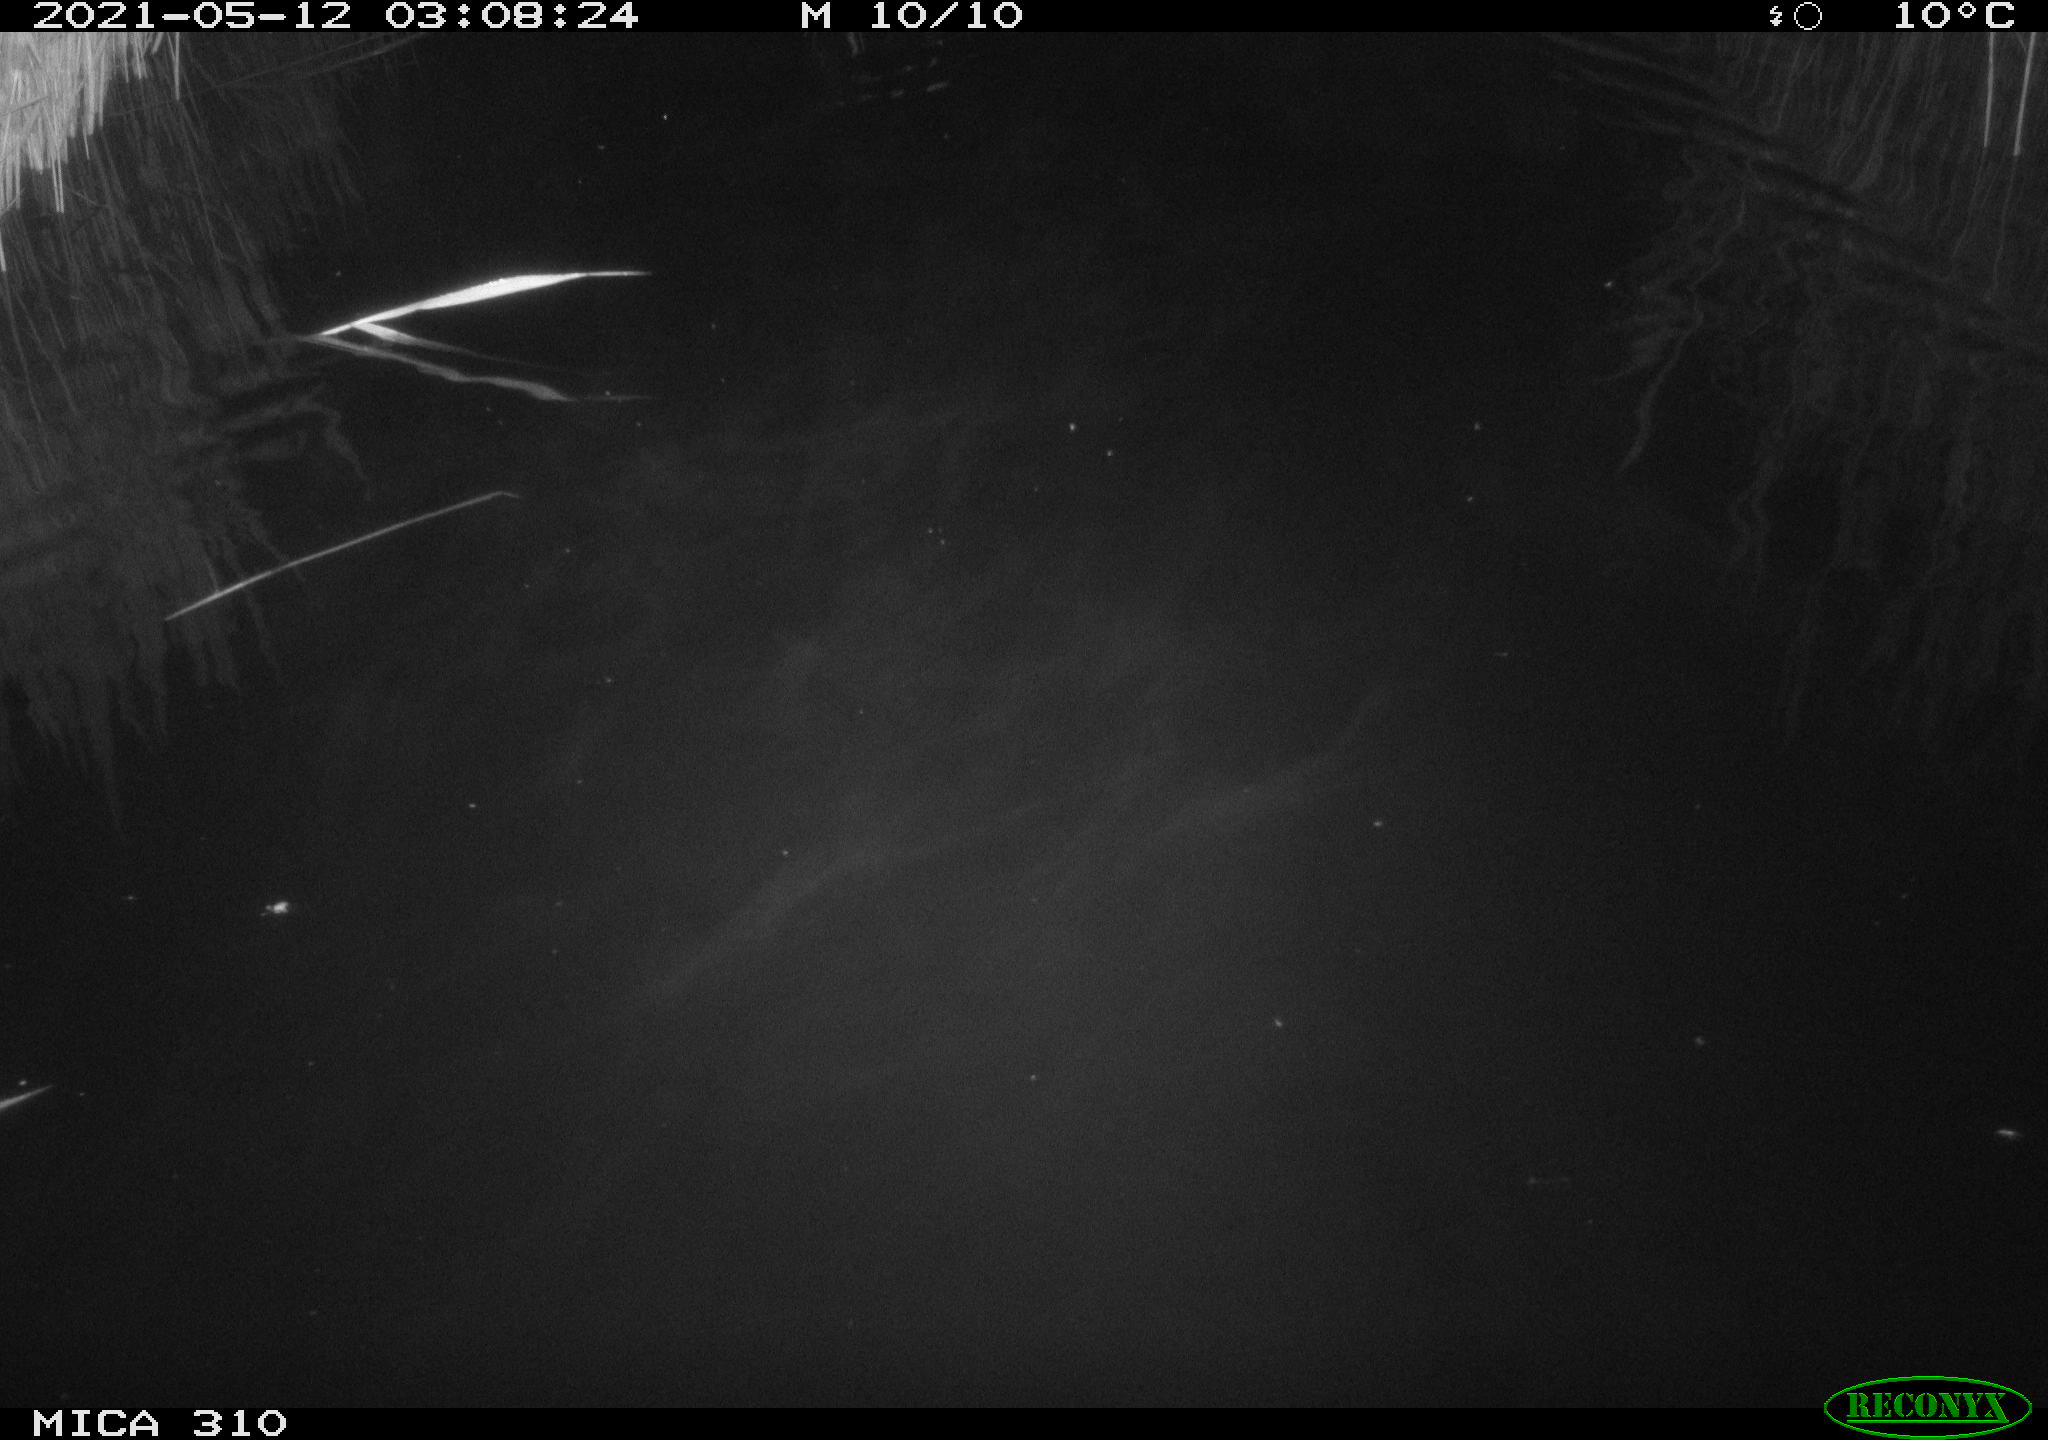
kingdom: Animalia
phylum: Chordata
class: Aves
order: Anseriformes
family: Anatidae
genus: Anas
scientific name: Anas platyrhynchos
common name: Mallard
